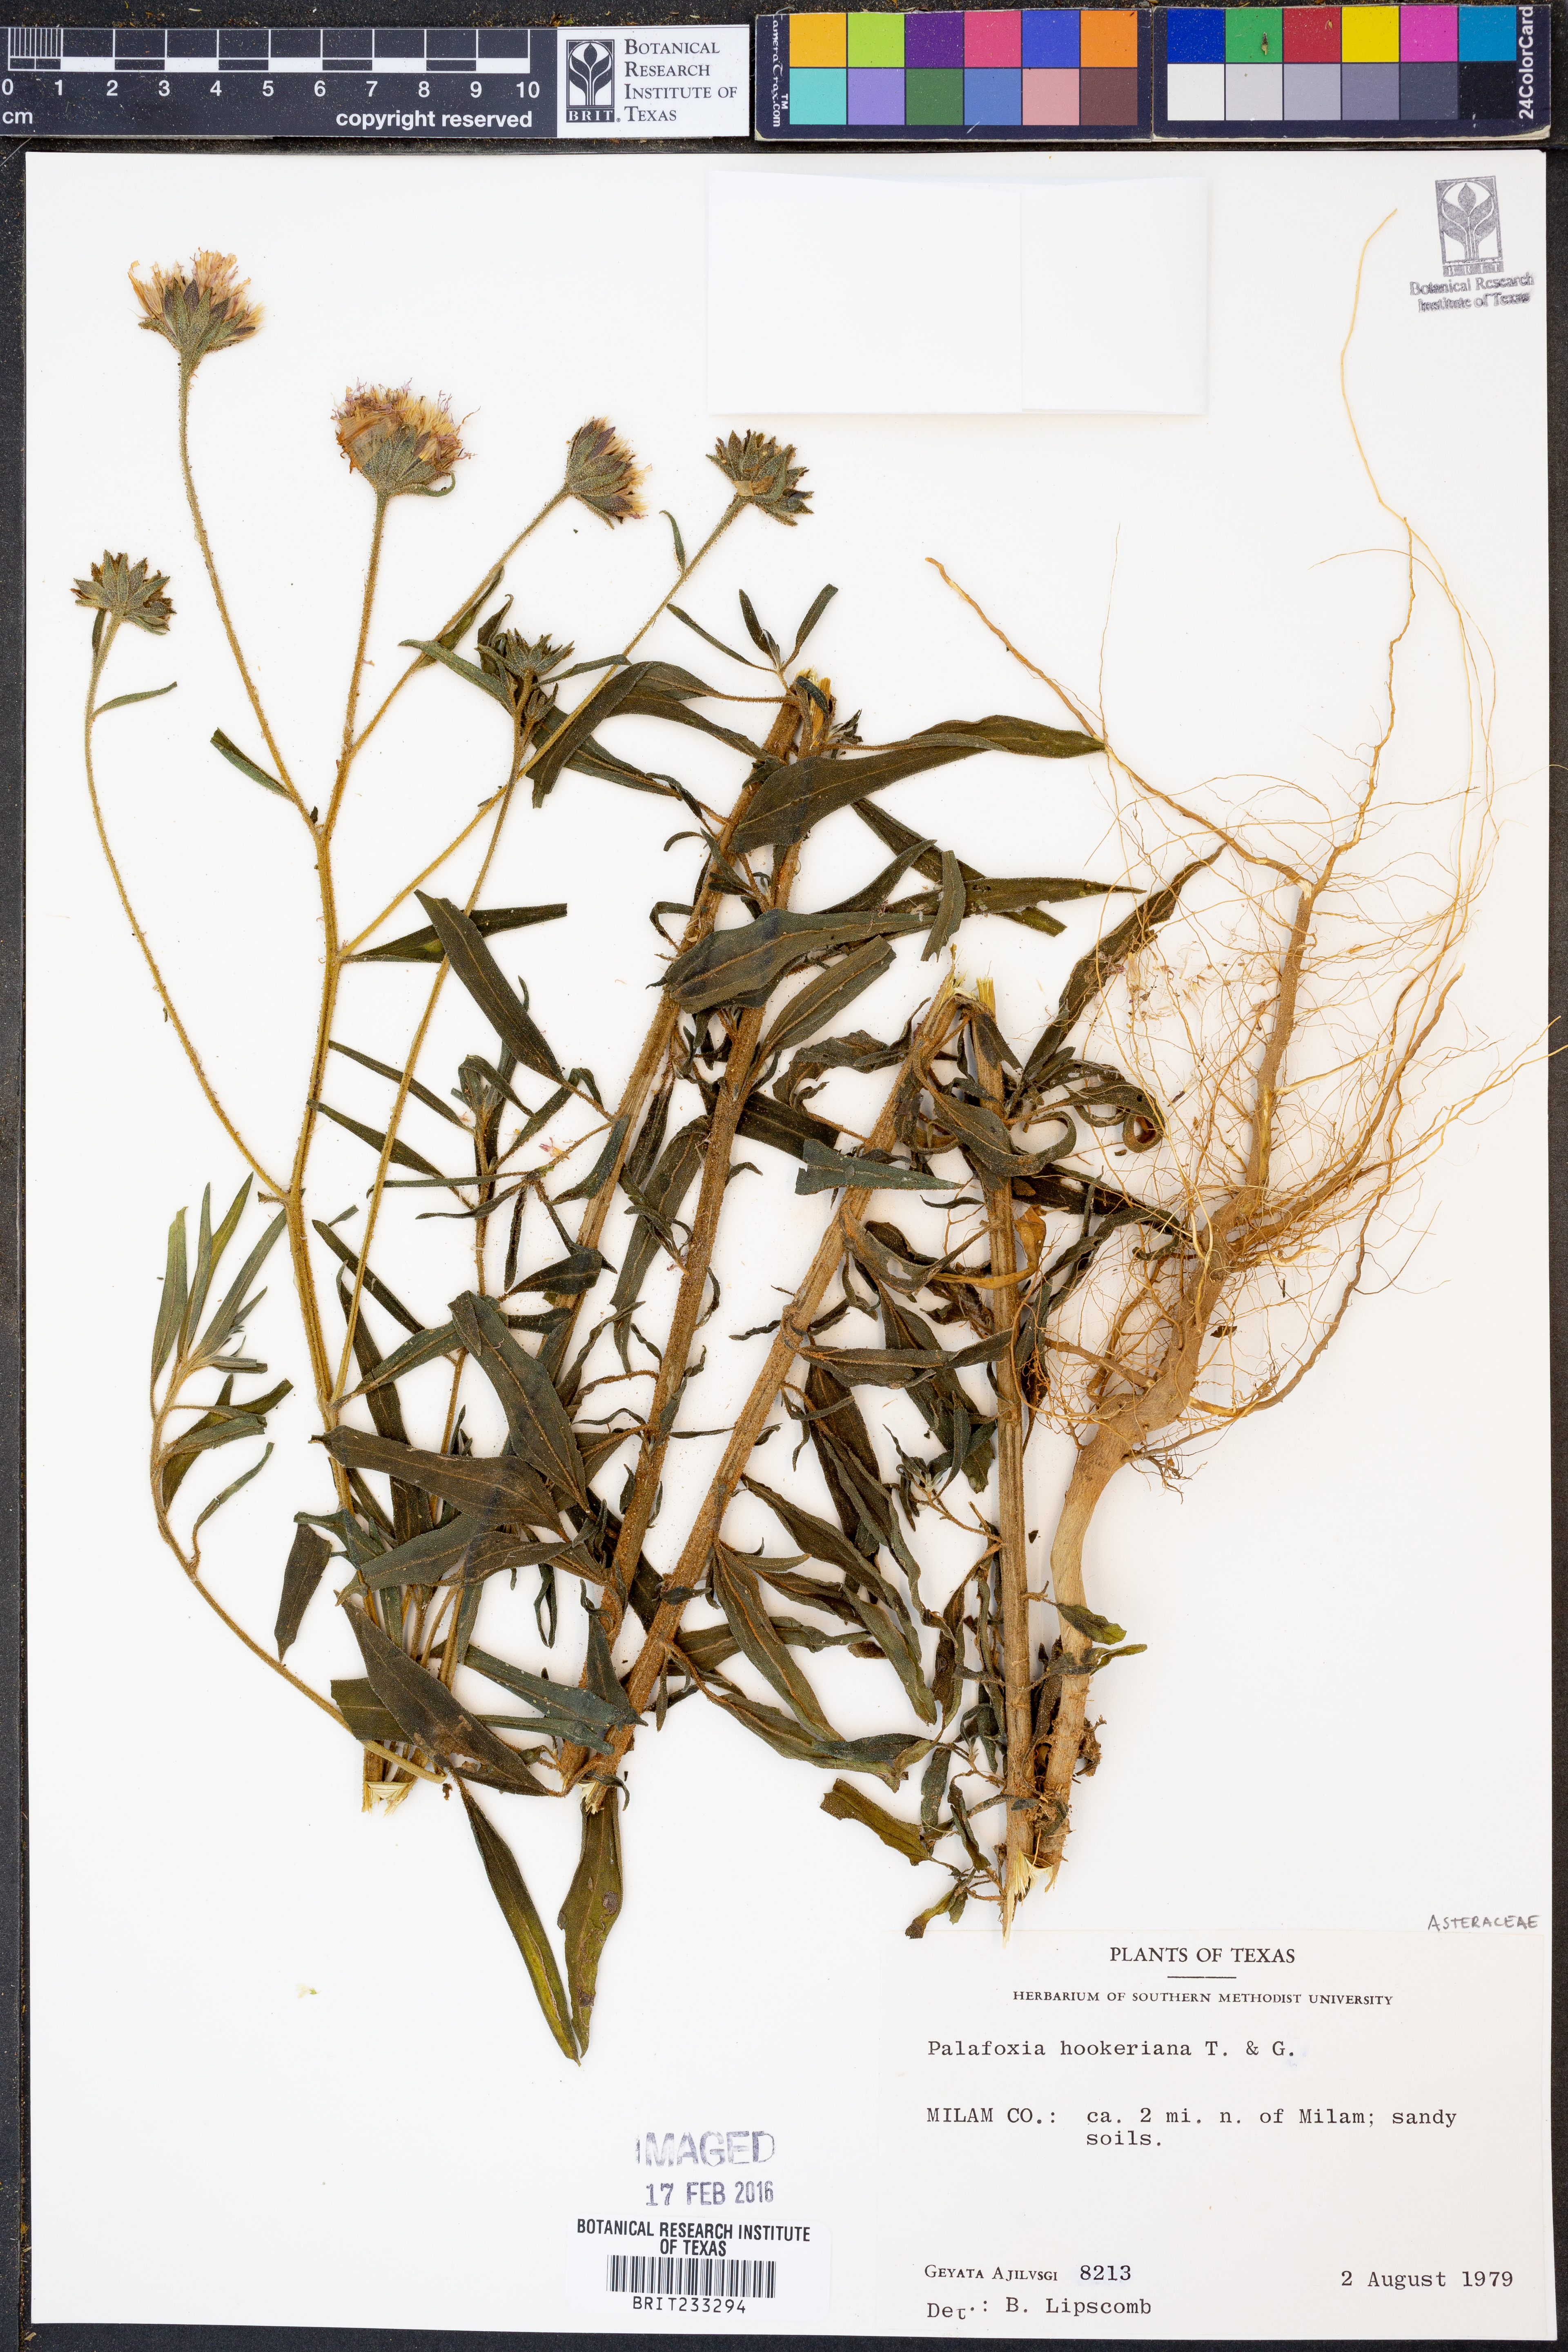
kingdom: Plantae
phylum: Tracheophyta
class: Magnoliopsida
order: Asterales
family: Asteraceae
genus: Palafoxia
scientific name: Palafoxia hookeriana
